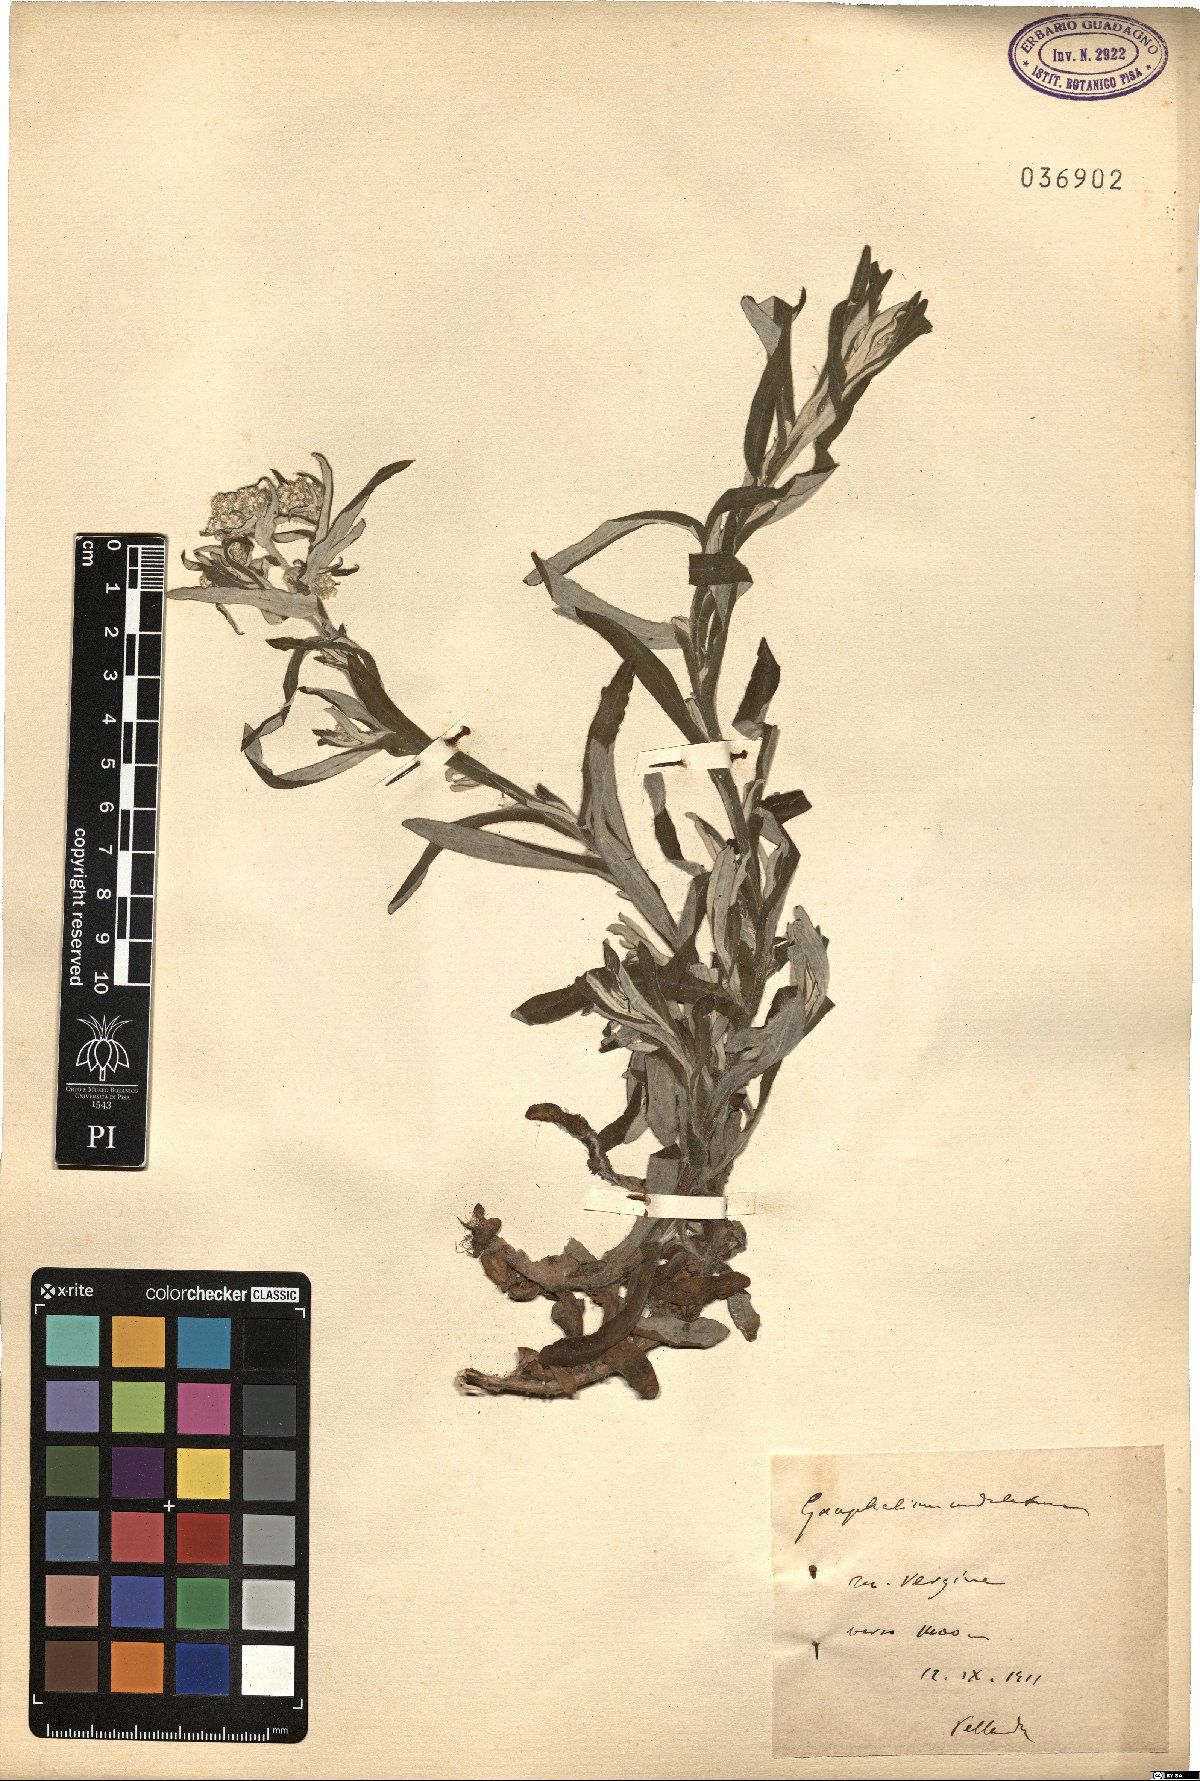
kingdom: Plantae
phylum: Tracheophyta
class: Magnoliopsida
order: Asterales
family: Asteraceae
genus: Pseudognaphalium
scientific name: Pseudognaphalium undulatum
